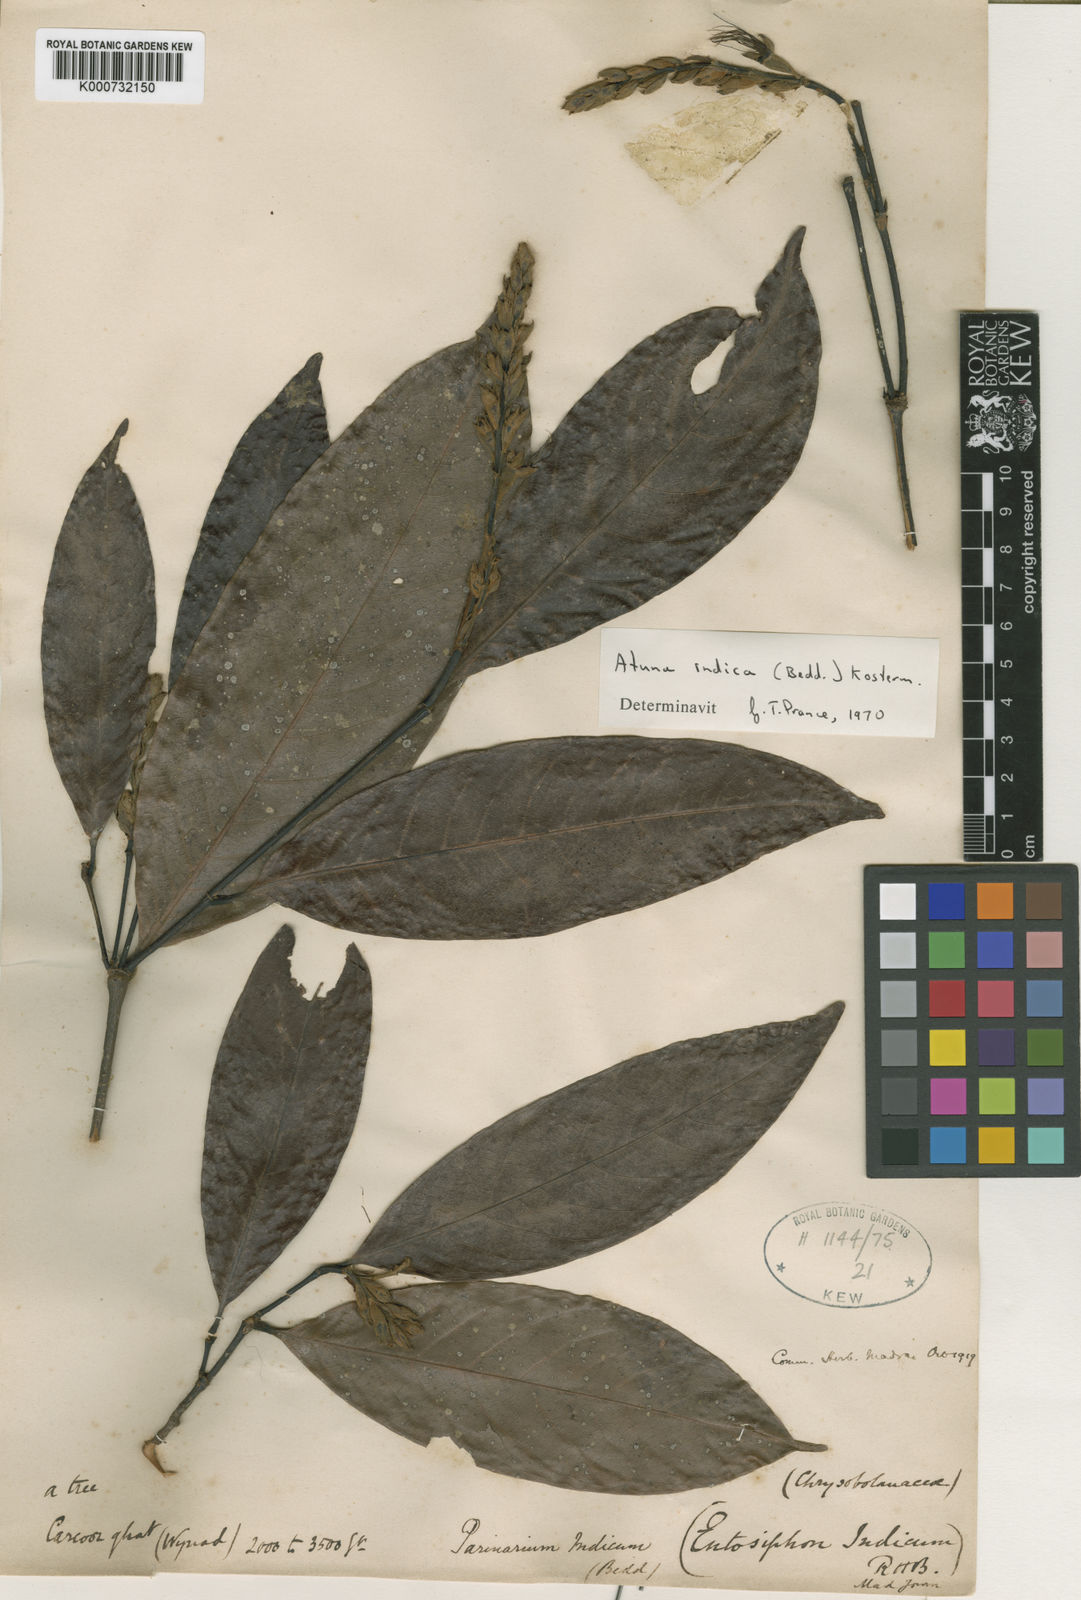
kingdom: Plantae
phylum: Tracheophyta
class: Magnoliopsida
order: Malpighiales
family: Chrysobalanaceae
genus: Atuna
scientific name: Atuna indica
